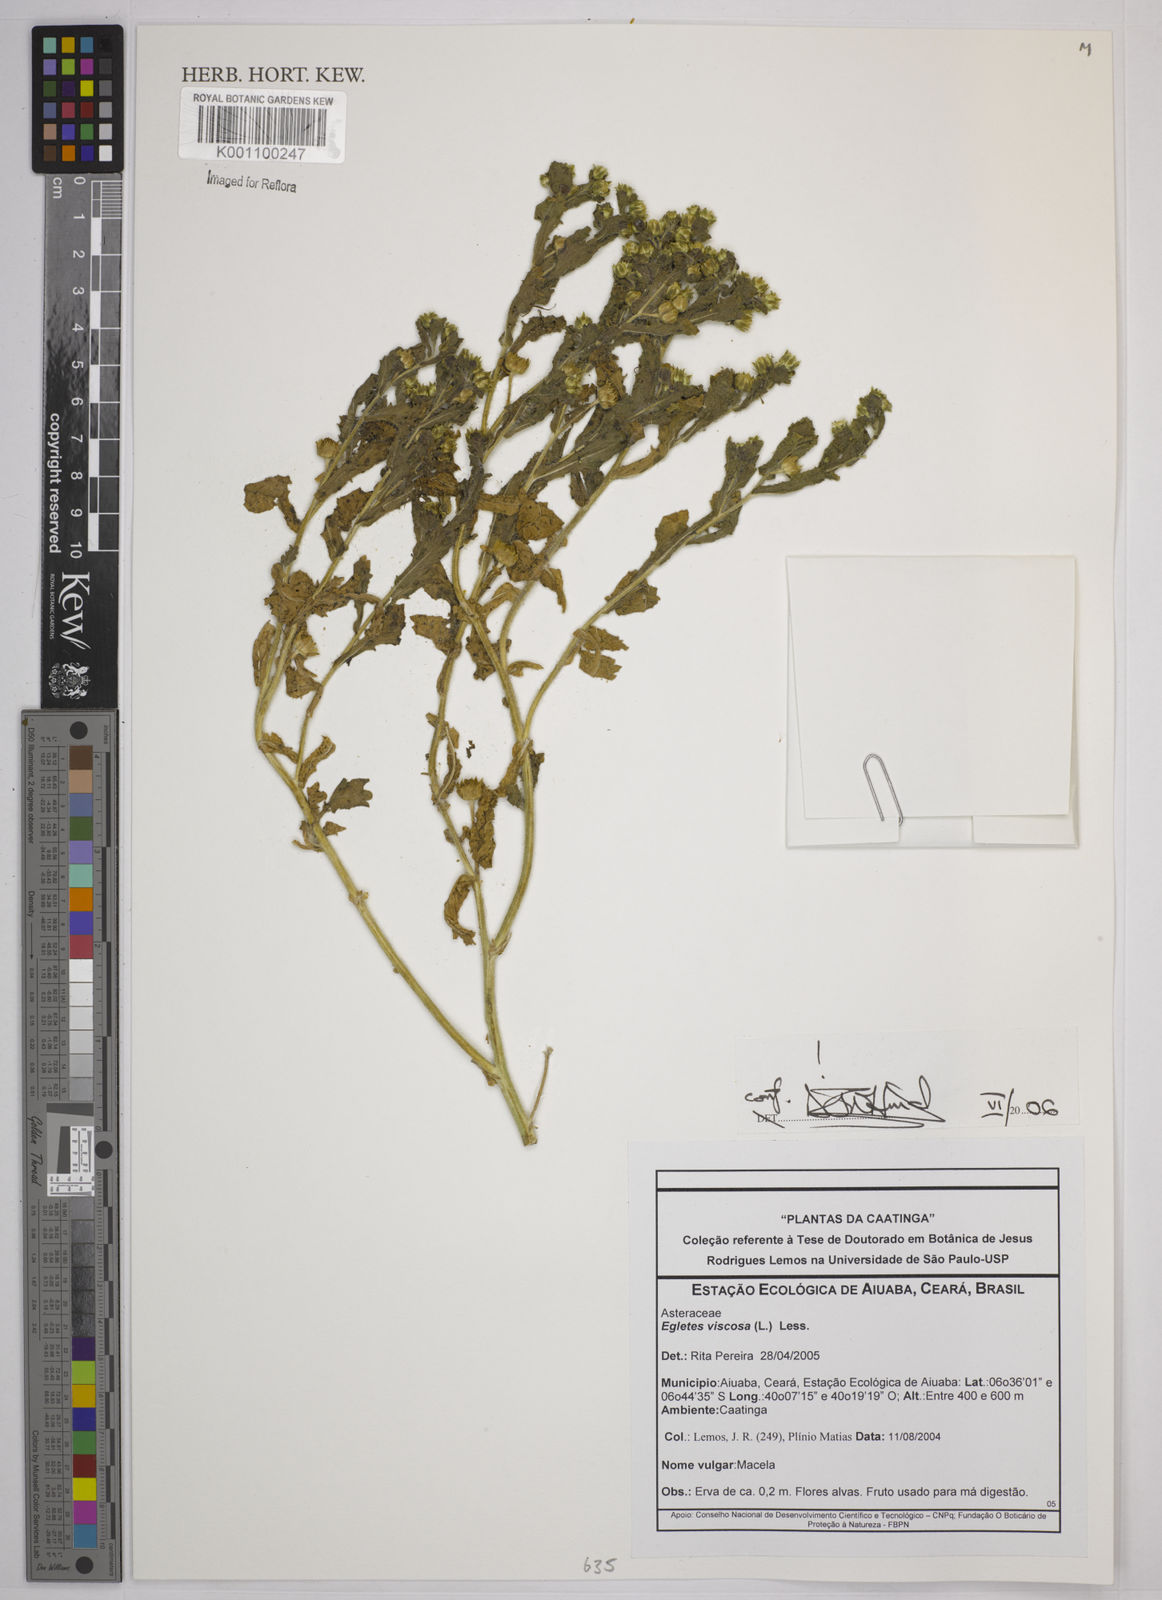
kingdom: Plantae
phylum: Tracheophyta
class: Magnoliopsida
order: Asterales
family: Asteraceae
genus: Egletes
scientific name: Egletes viscosa
